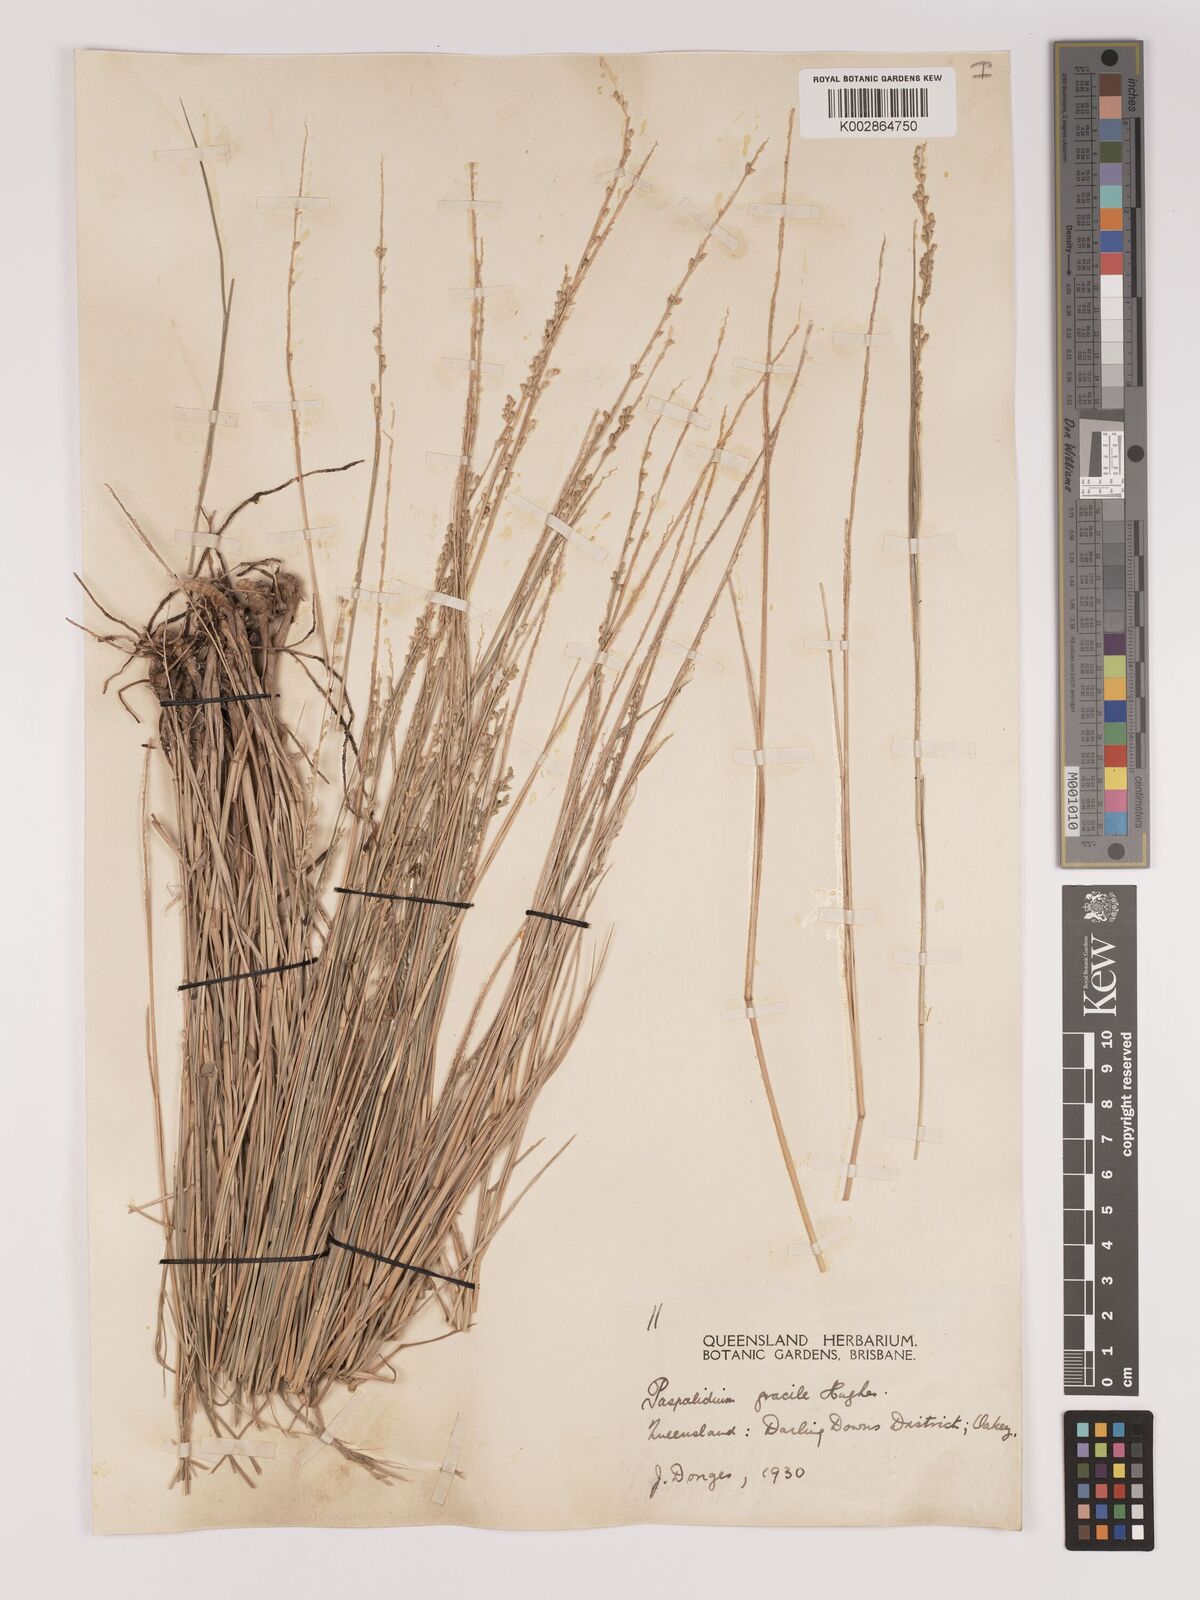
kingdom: Plantae
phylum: Tracheophyta
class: Liliopsida
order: Poales
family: Poaceae
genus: Setaria
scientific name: Setaria brownii
